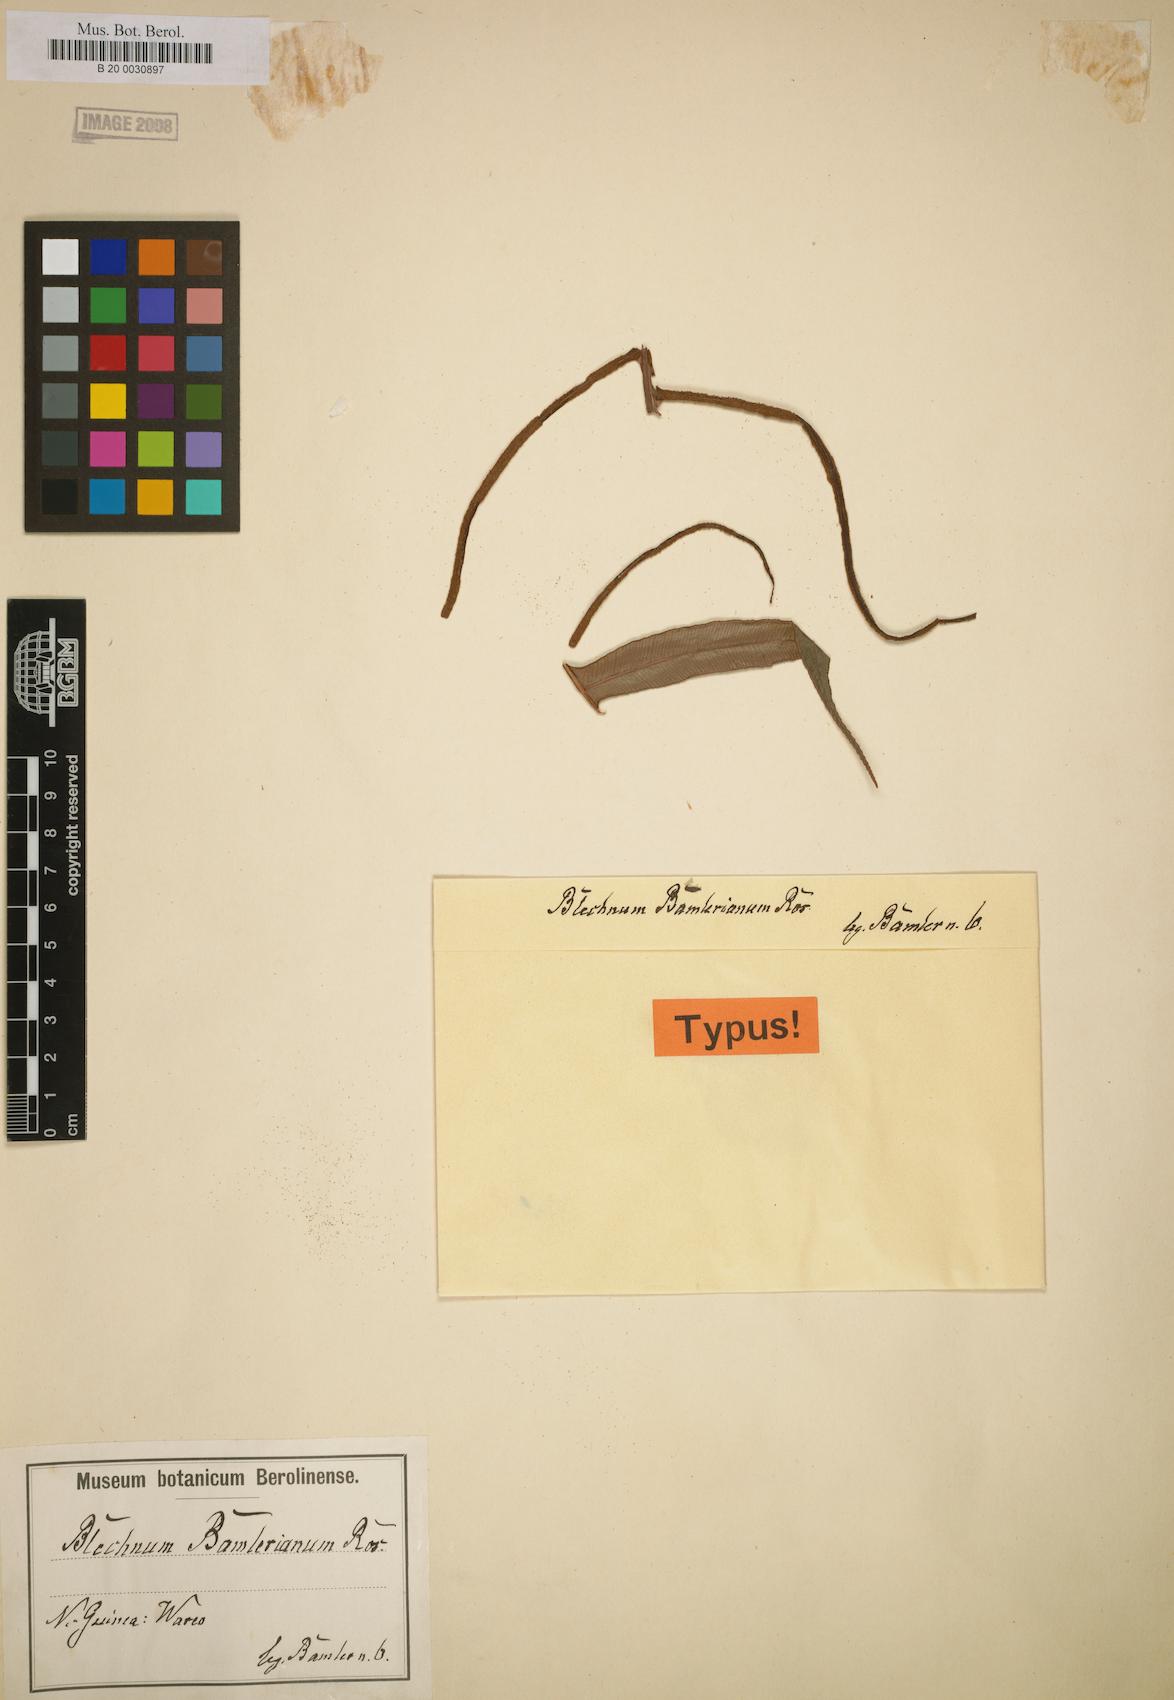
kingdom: Plantae
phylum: Tracheophyta
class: Polypodiopsida
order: Polypodiales
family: Blechnaceae
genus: Oceaniopteris
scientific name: Oceaniopteris vittata
